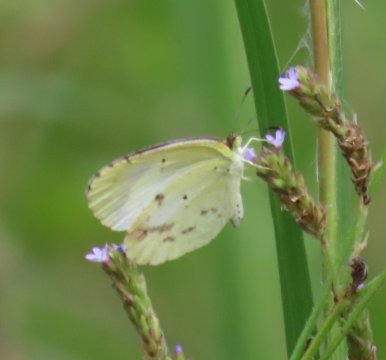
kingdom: Animalia
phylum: Arthropoda
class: Insecta
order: Lepidoptera
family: Pieridae
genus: Pyrisitia
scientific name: Pyrisitia lisa
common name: Little Yellow
